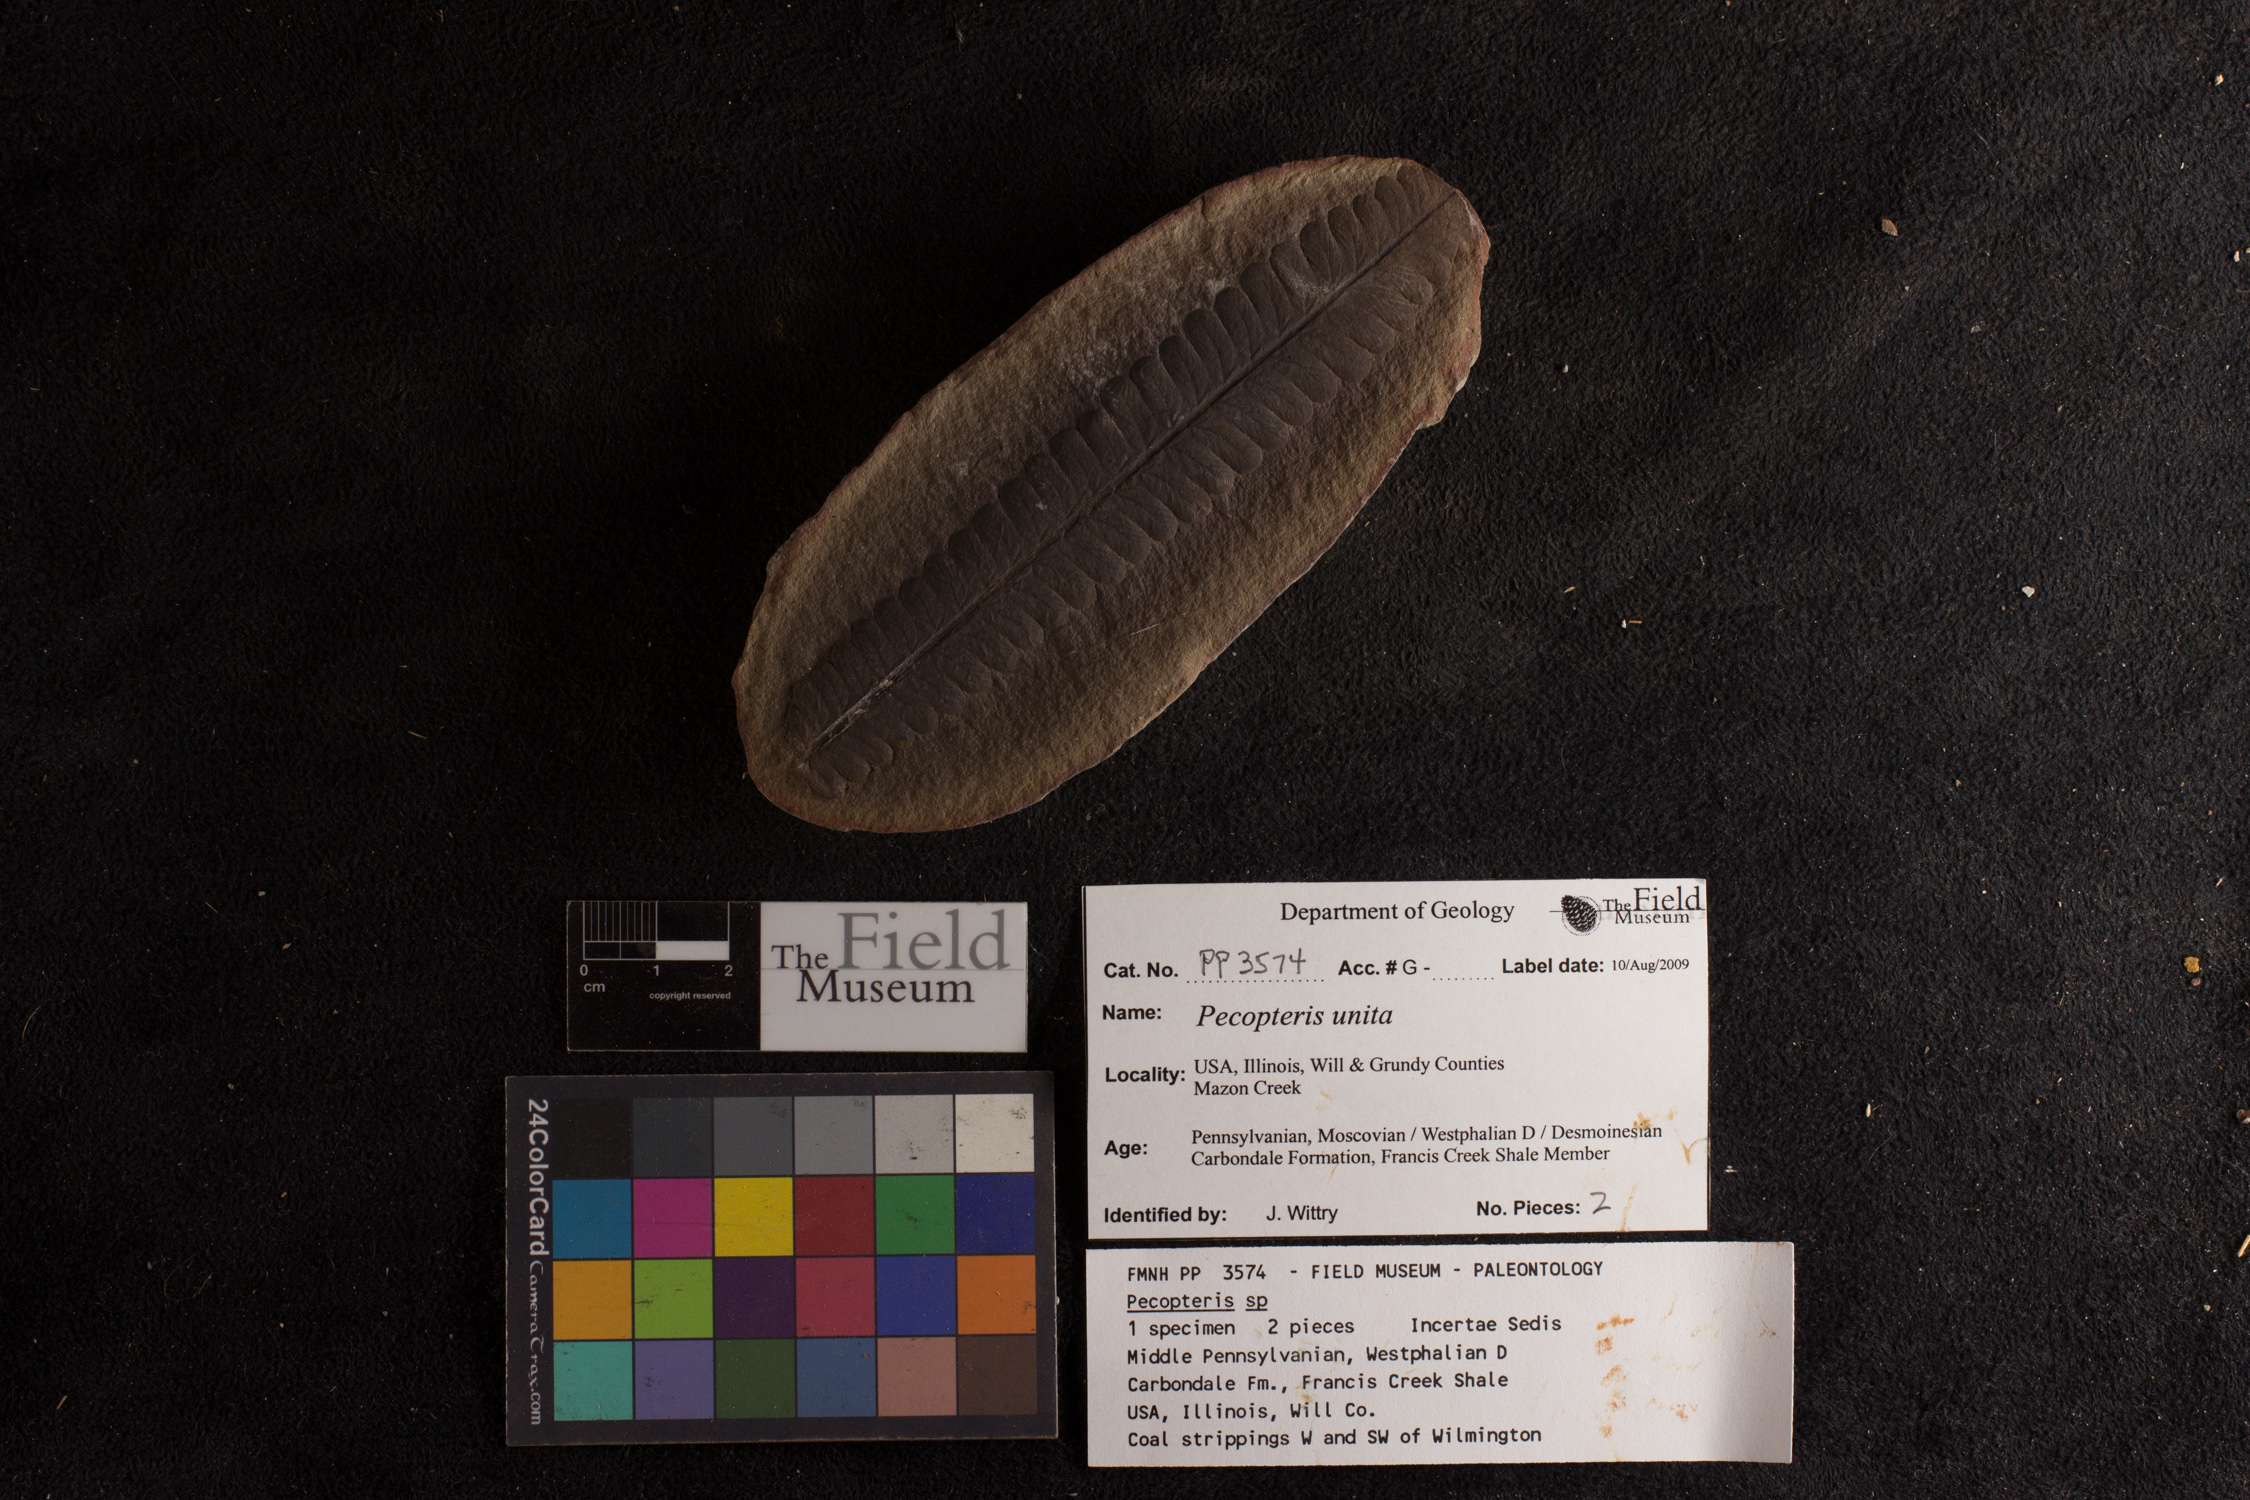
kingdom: Plantae
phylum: Tracheophyta
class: Polypodiopsida
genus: Diplazites
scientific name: Diplazites
